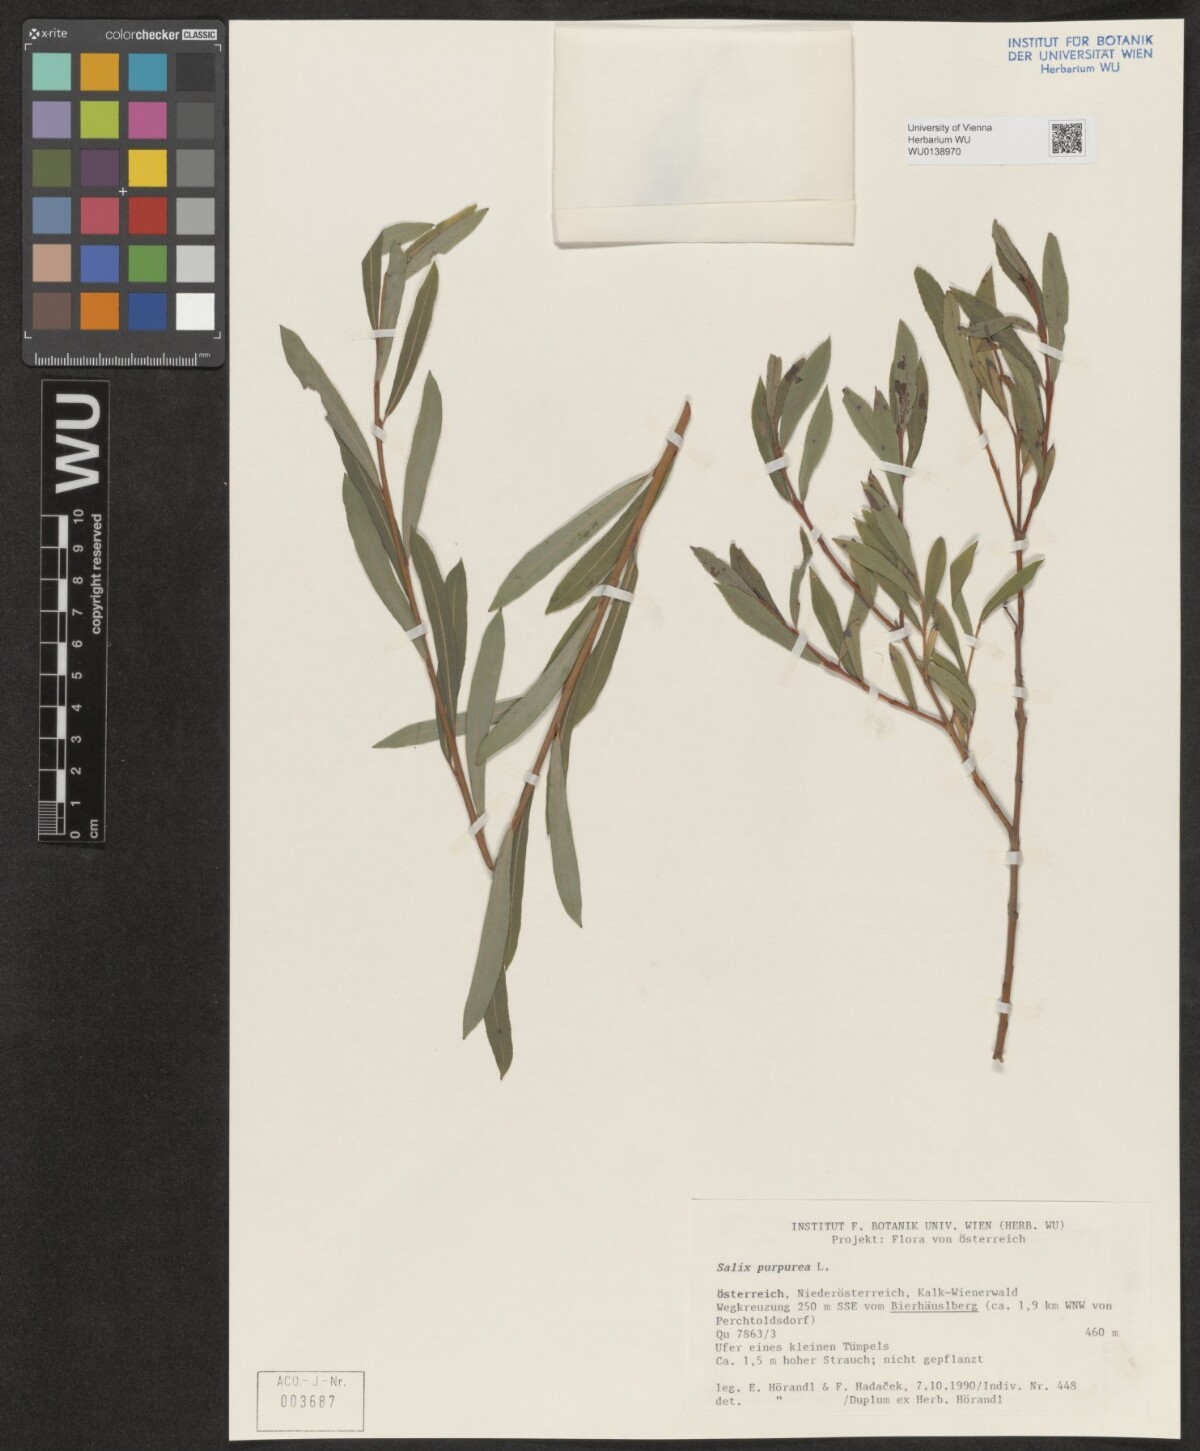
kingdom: Plantae
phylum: Tracheophyta
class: Magnoliopsida
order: Malpighiales
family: Salicaceae
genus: Salix
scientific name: Salix purpurea
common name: Purple willow
